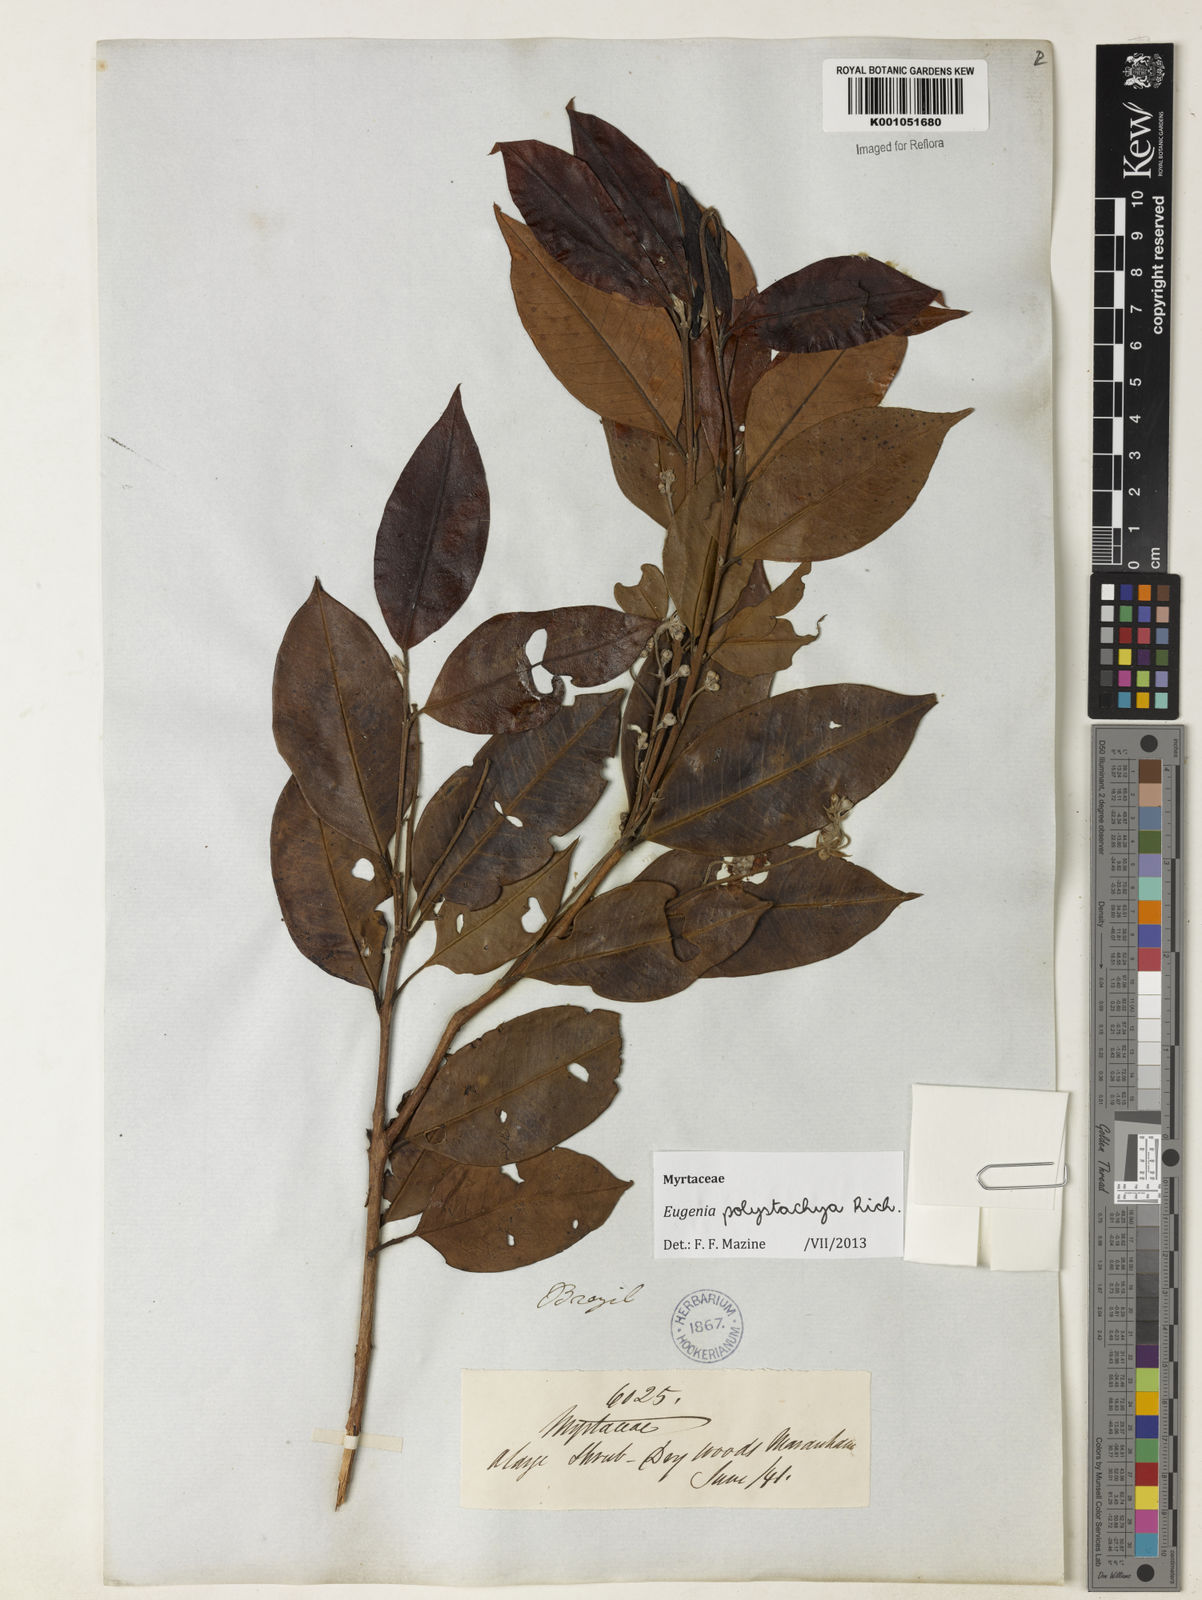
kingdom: Plantae
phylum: Tracheophyta
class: Magnoliopsida
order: Myrtales
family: Myrtaceae
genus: Eugenia
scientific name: Eugenia polystachya
